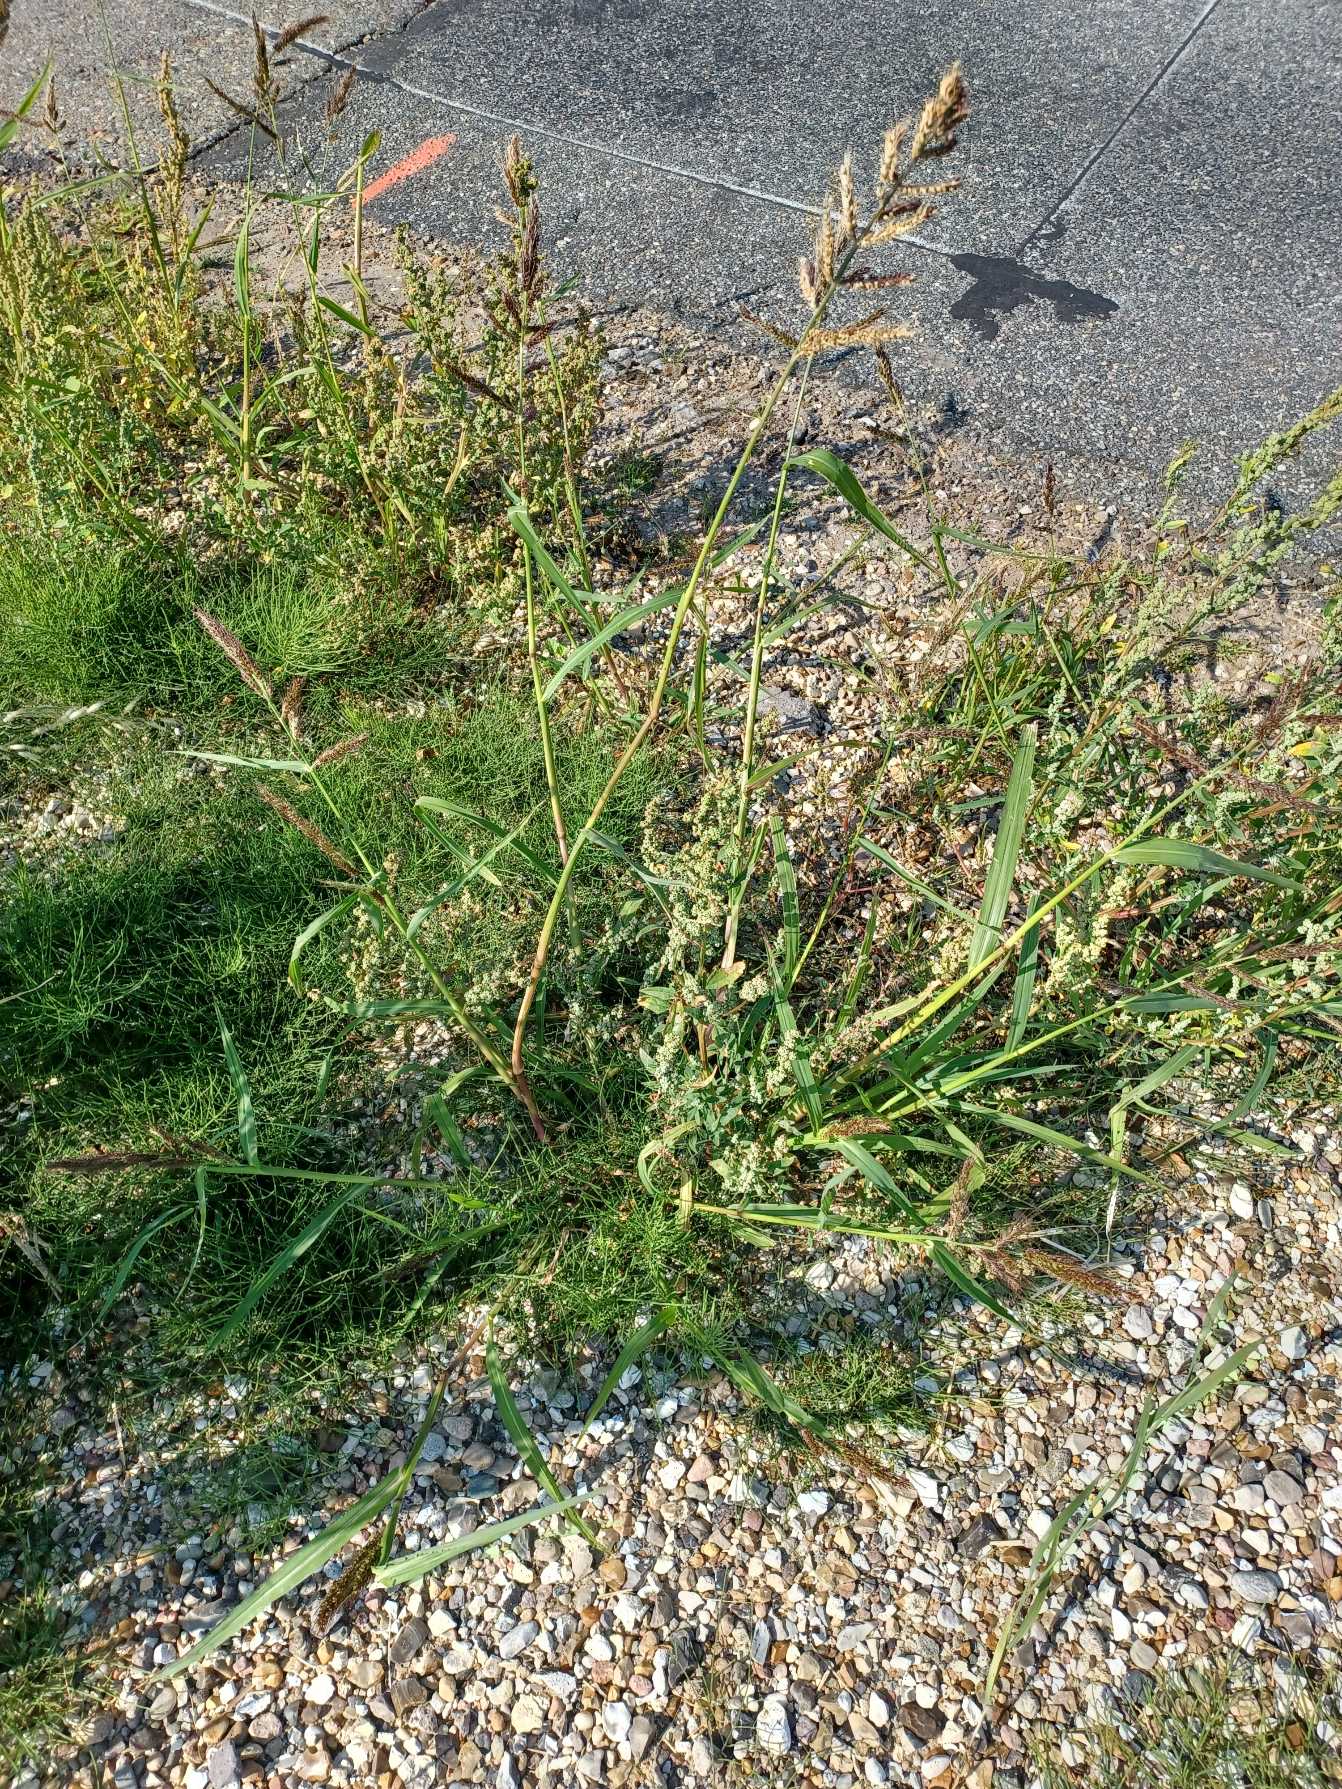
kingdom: Plantae
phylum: Tracheophyta
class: Liliopsida
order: Poales
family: Poaceae
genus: Echinochloa
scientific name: Echinochloa crus-galli
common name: Almindelig hanespore
